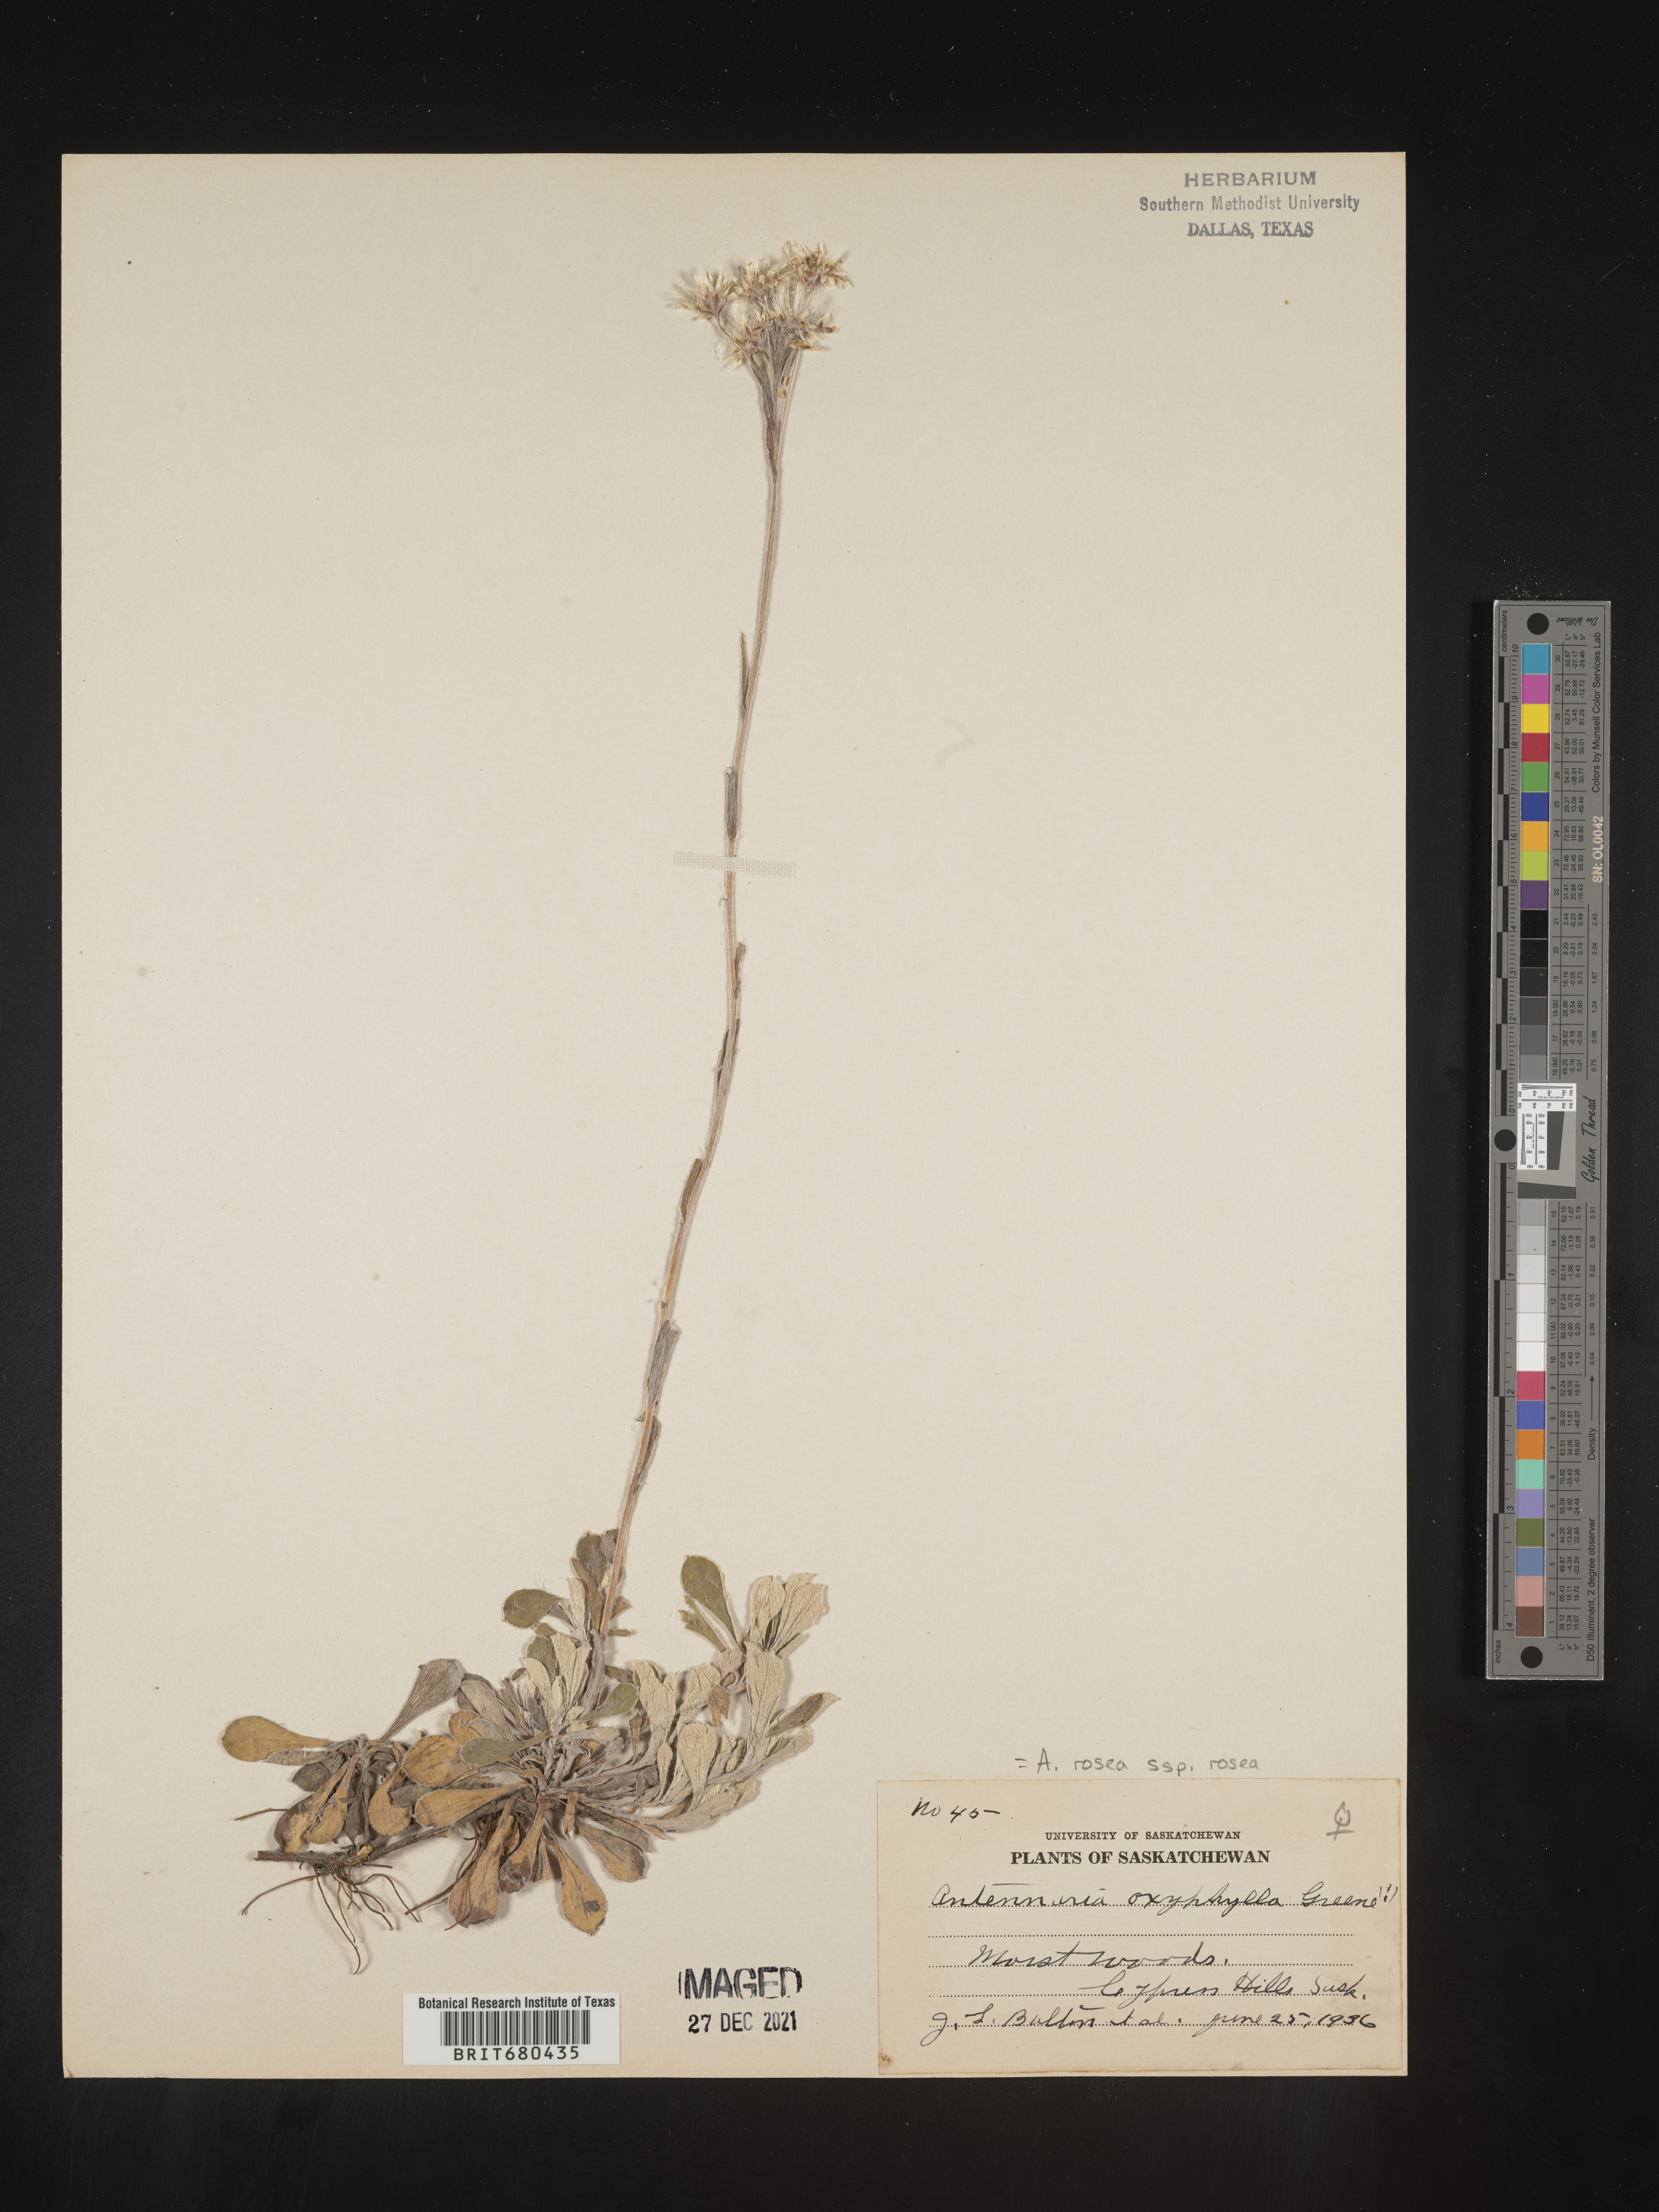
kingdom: Plantae
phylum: Tracheophyta
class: Magnoliopsida
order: Asterales
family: Asteraceae
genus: Antennaria
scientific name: Antennaria rosea
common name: Rosy pussytoes
